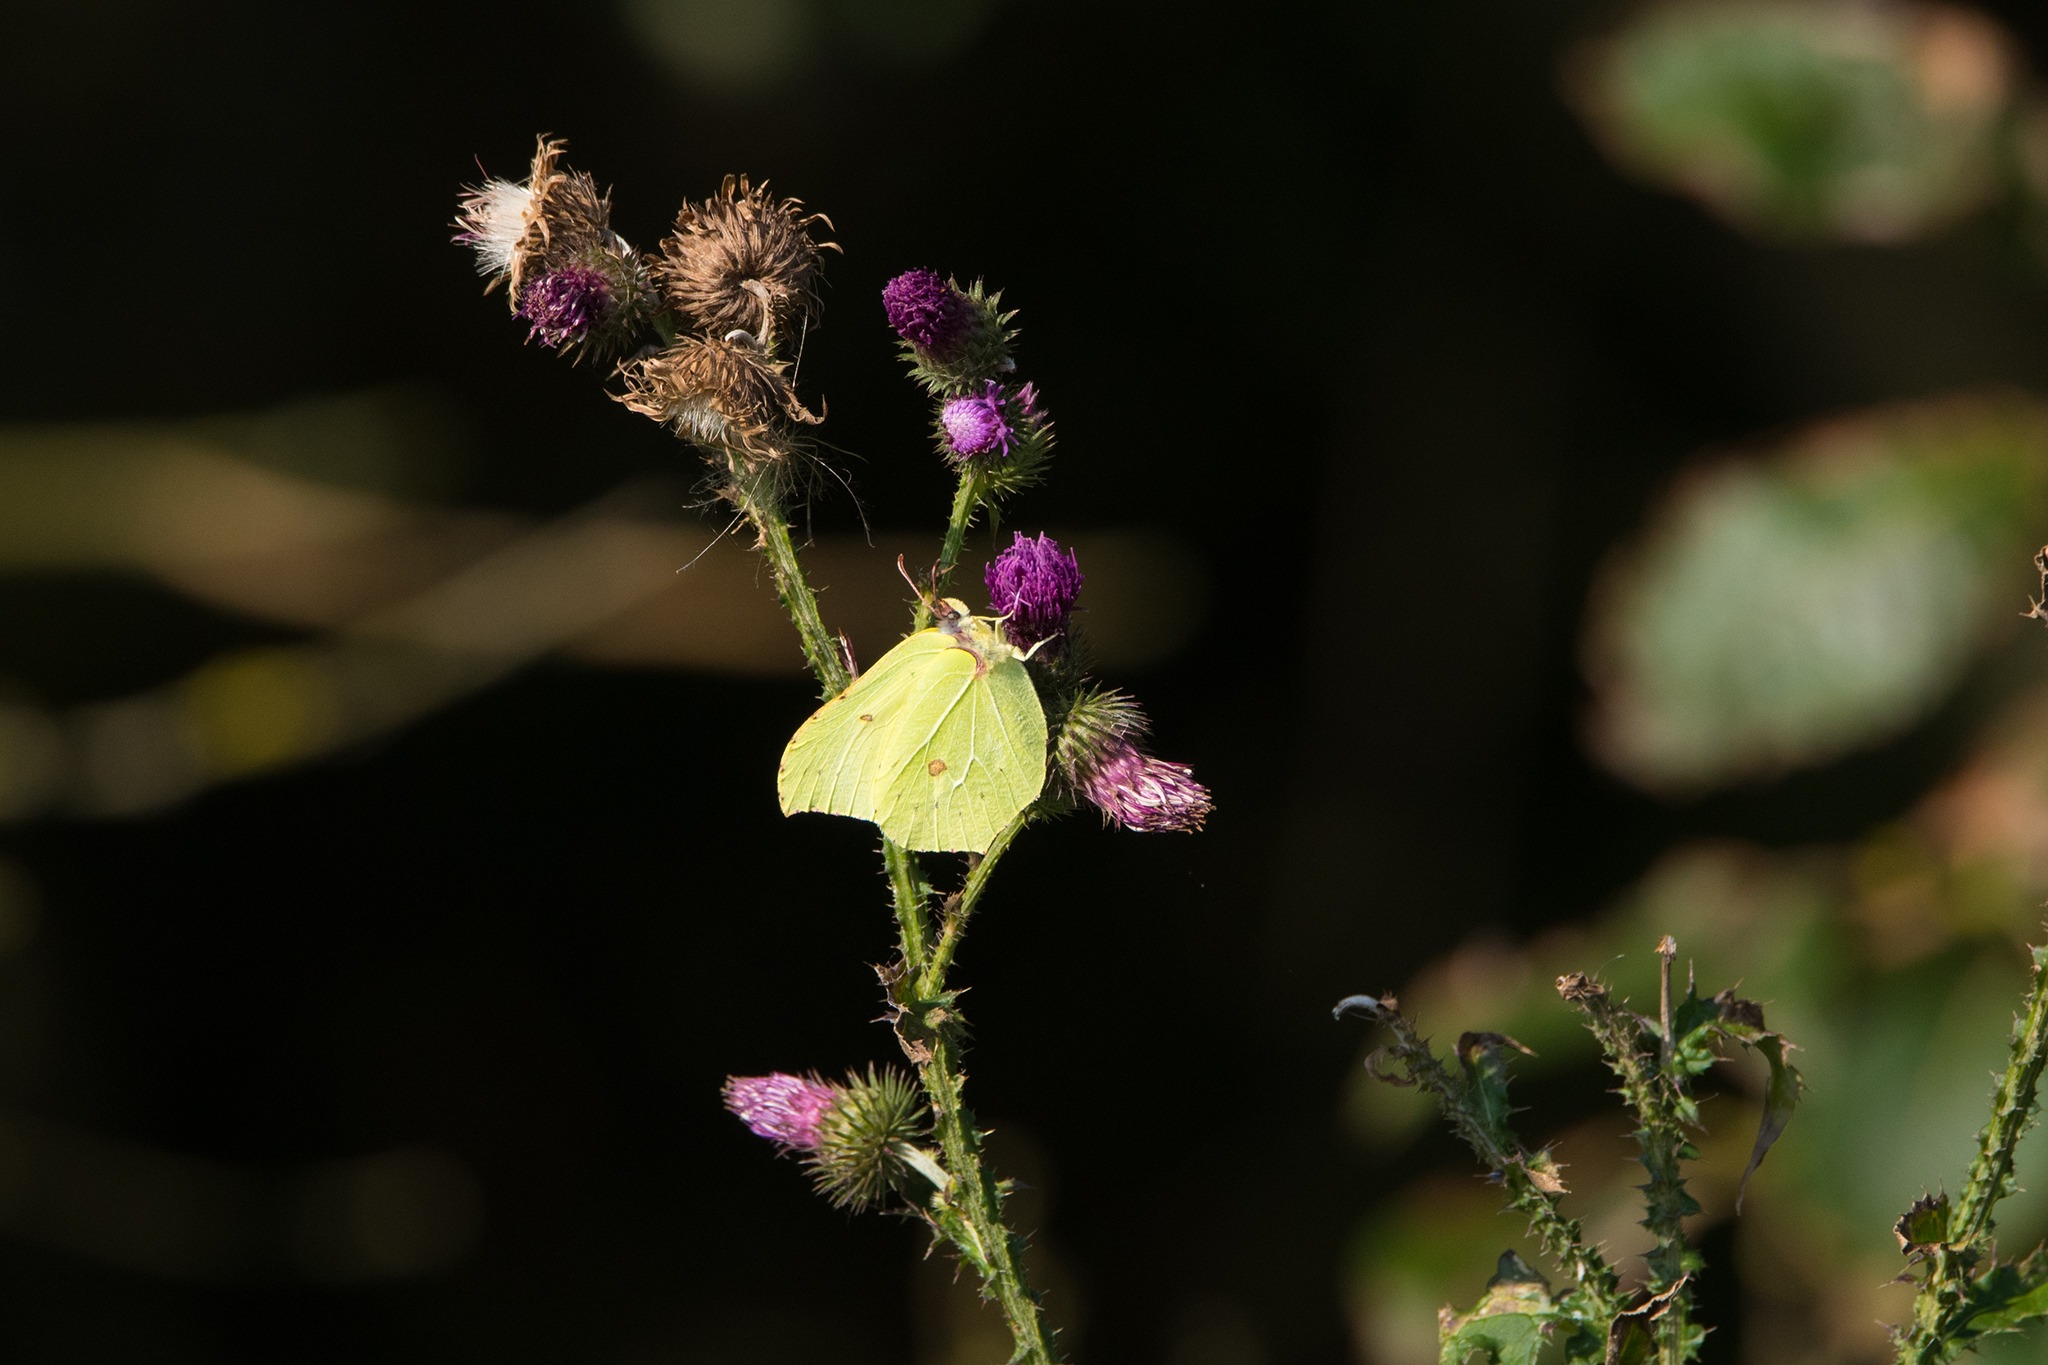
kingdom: Animalia
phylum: Arthropoda
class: Insecta
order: Lepidoptera
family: Pieridae
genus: Gonepteryx
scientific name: Gonepteryx rhamni
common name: Citronsommerfugl
